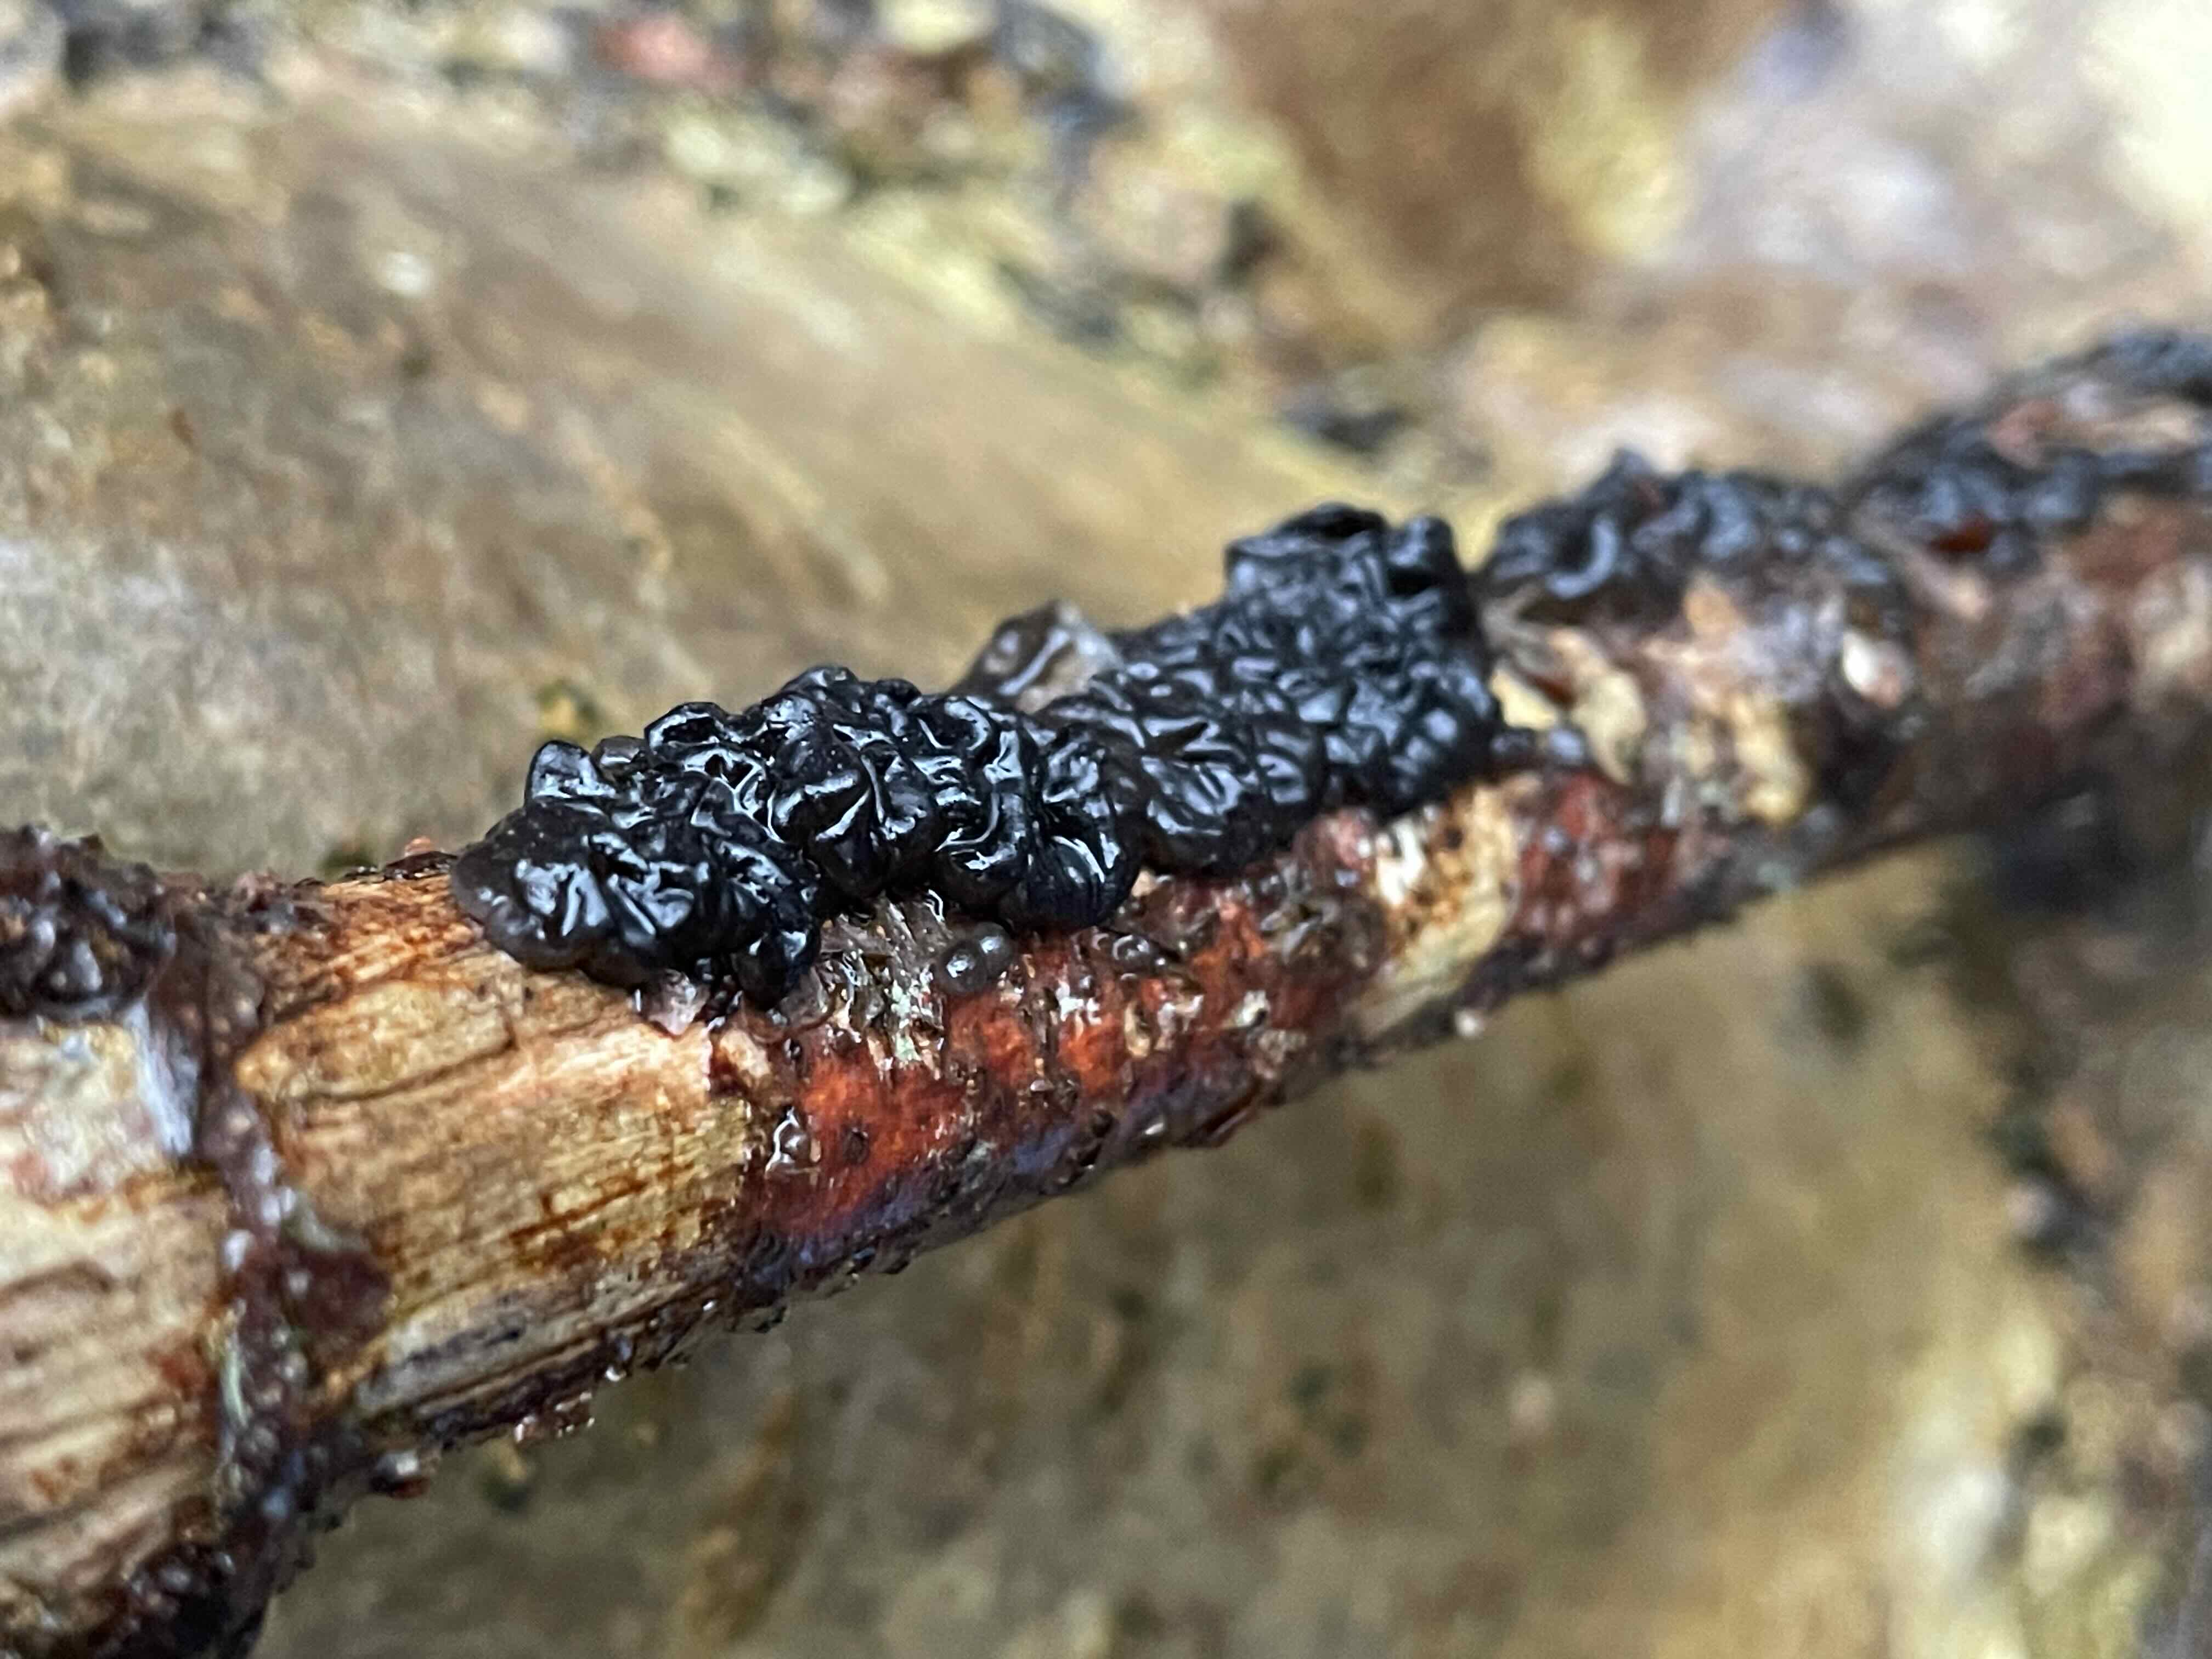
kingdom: Fungi
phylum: Basidiomycota
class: Agaricomycetes
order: Auriculariales
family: Auriculariaceae
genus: Exidia
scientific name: Exidia nigricans
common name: almindelig bævretop
